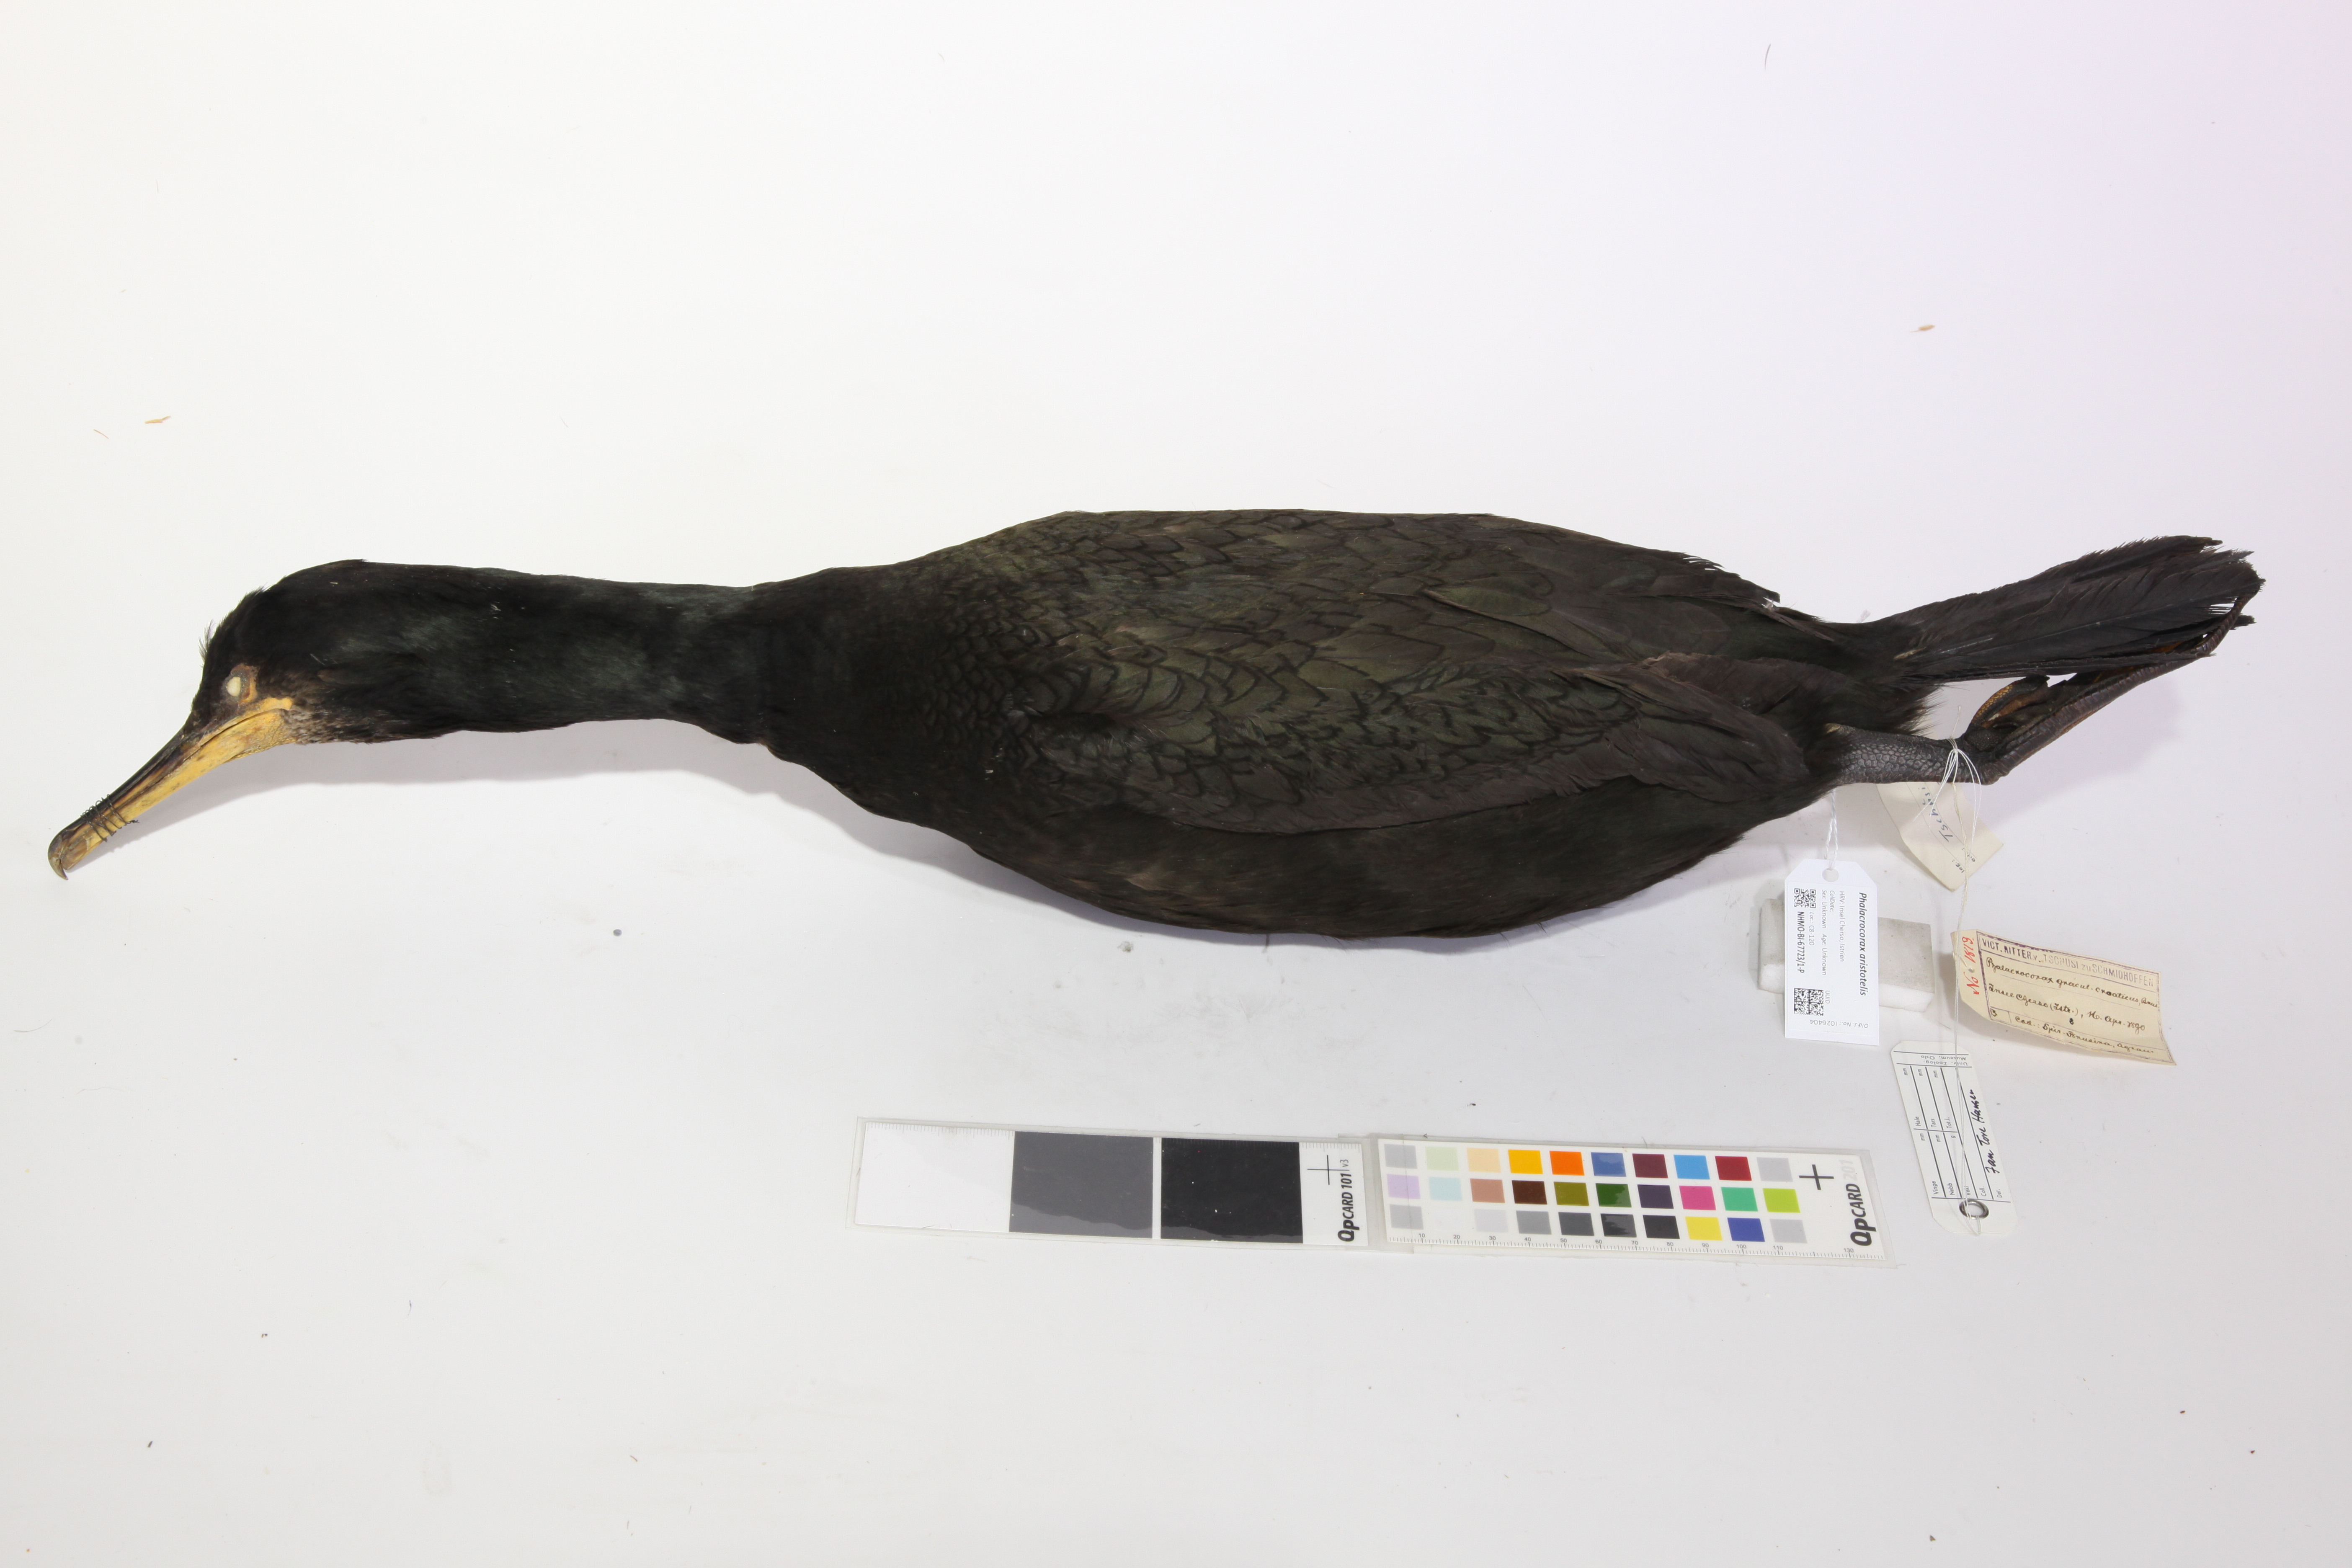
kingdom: Animalia
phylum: Chordata
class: Aves
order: Suliformes
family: Phalacrocoracidae
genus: Phalacrocorax
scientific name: Phalacrocorax aristotelis
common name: European shag
